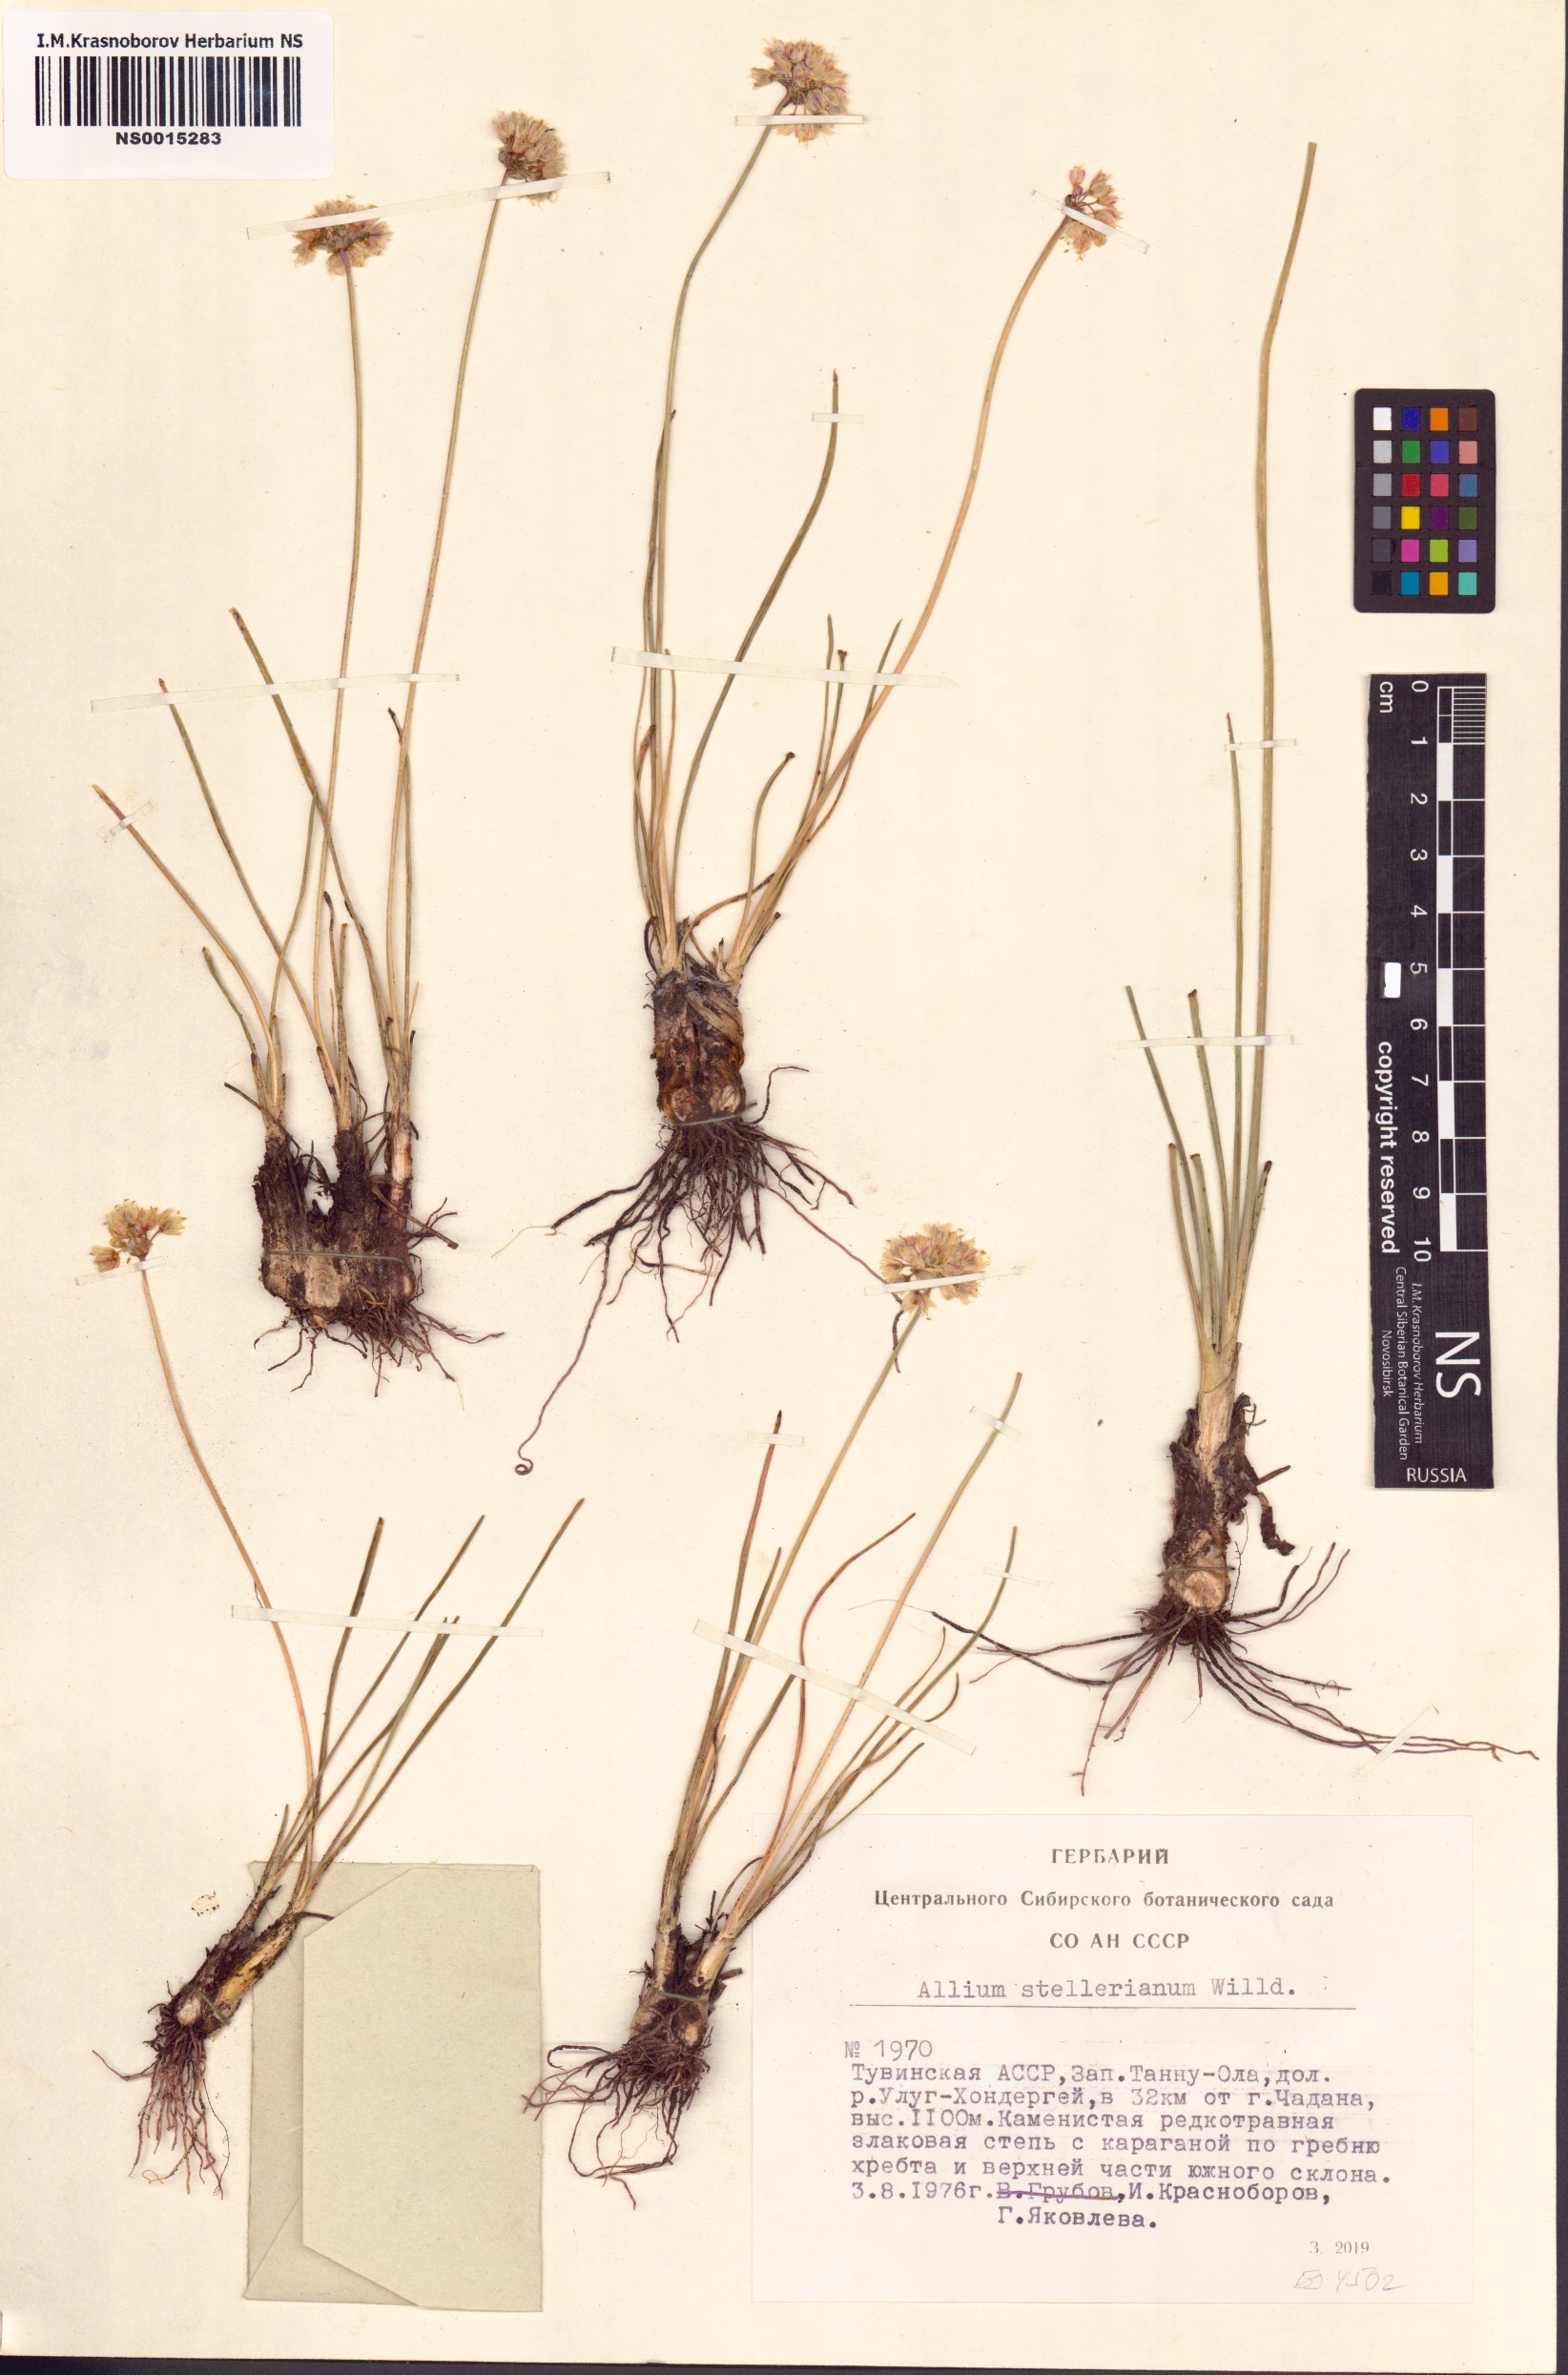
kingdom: Plantae
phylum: Tracheophyta
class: Liliopsida
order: Asparagales
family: Amaryllidaceae
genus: Allium
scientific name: Allium stellerianum
